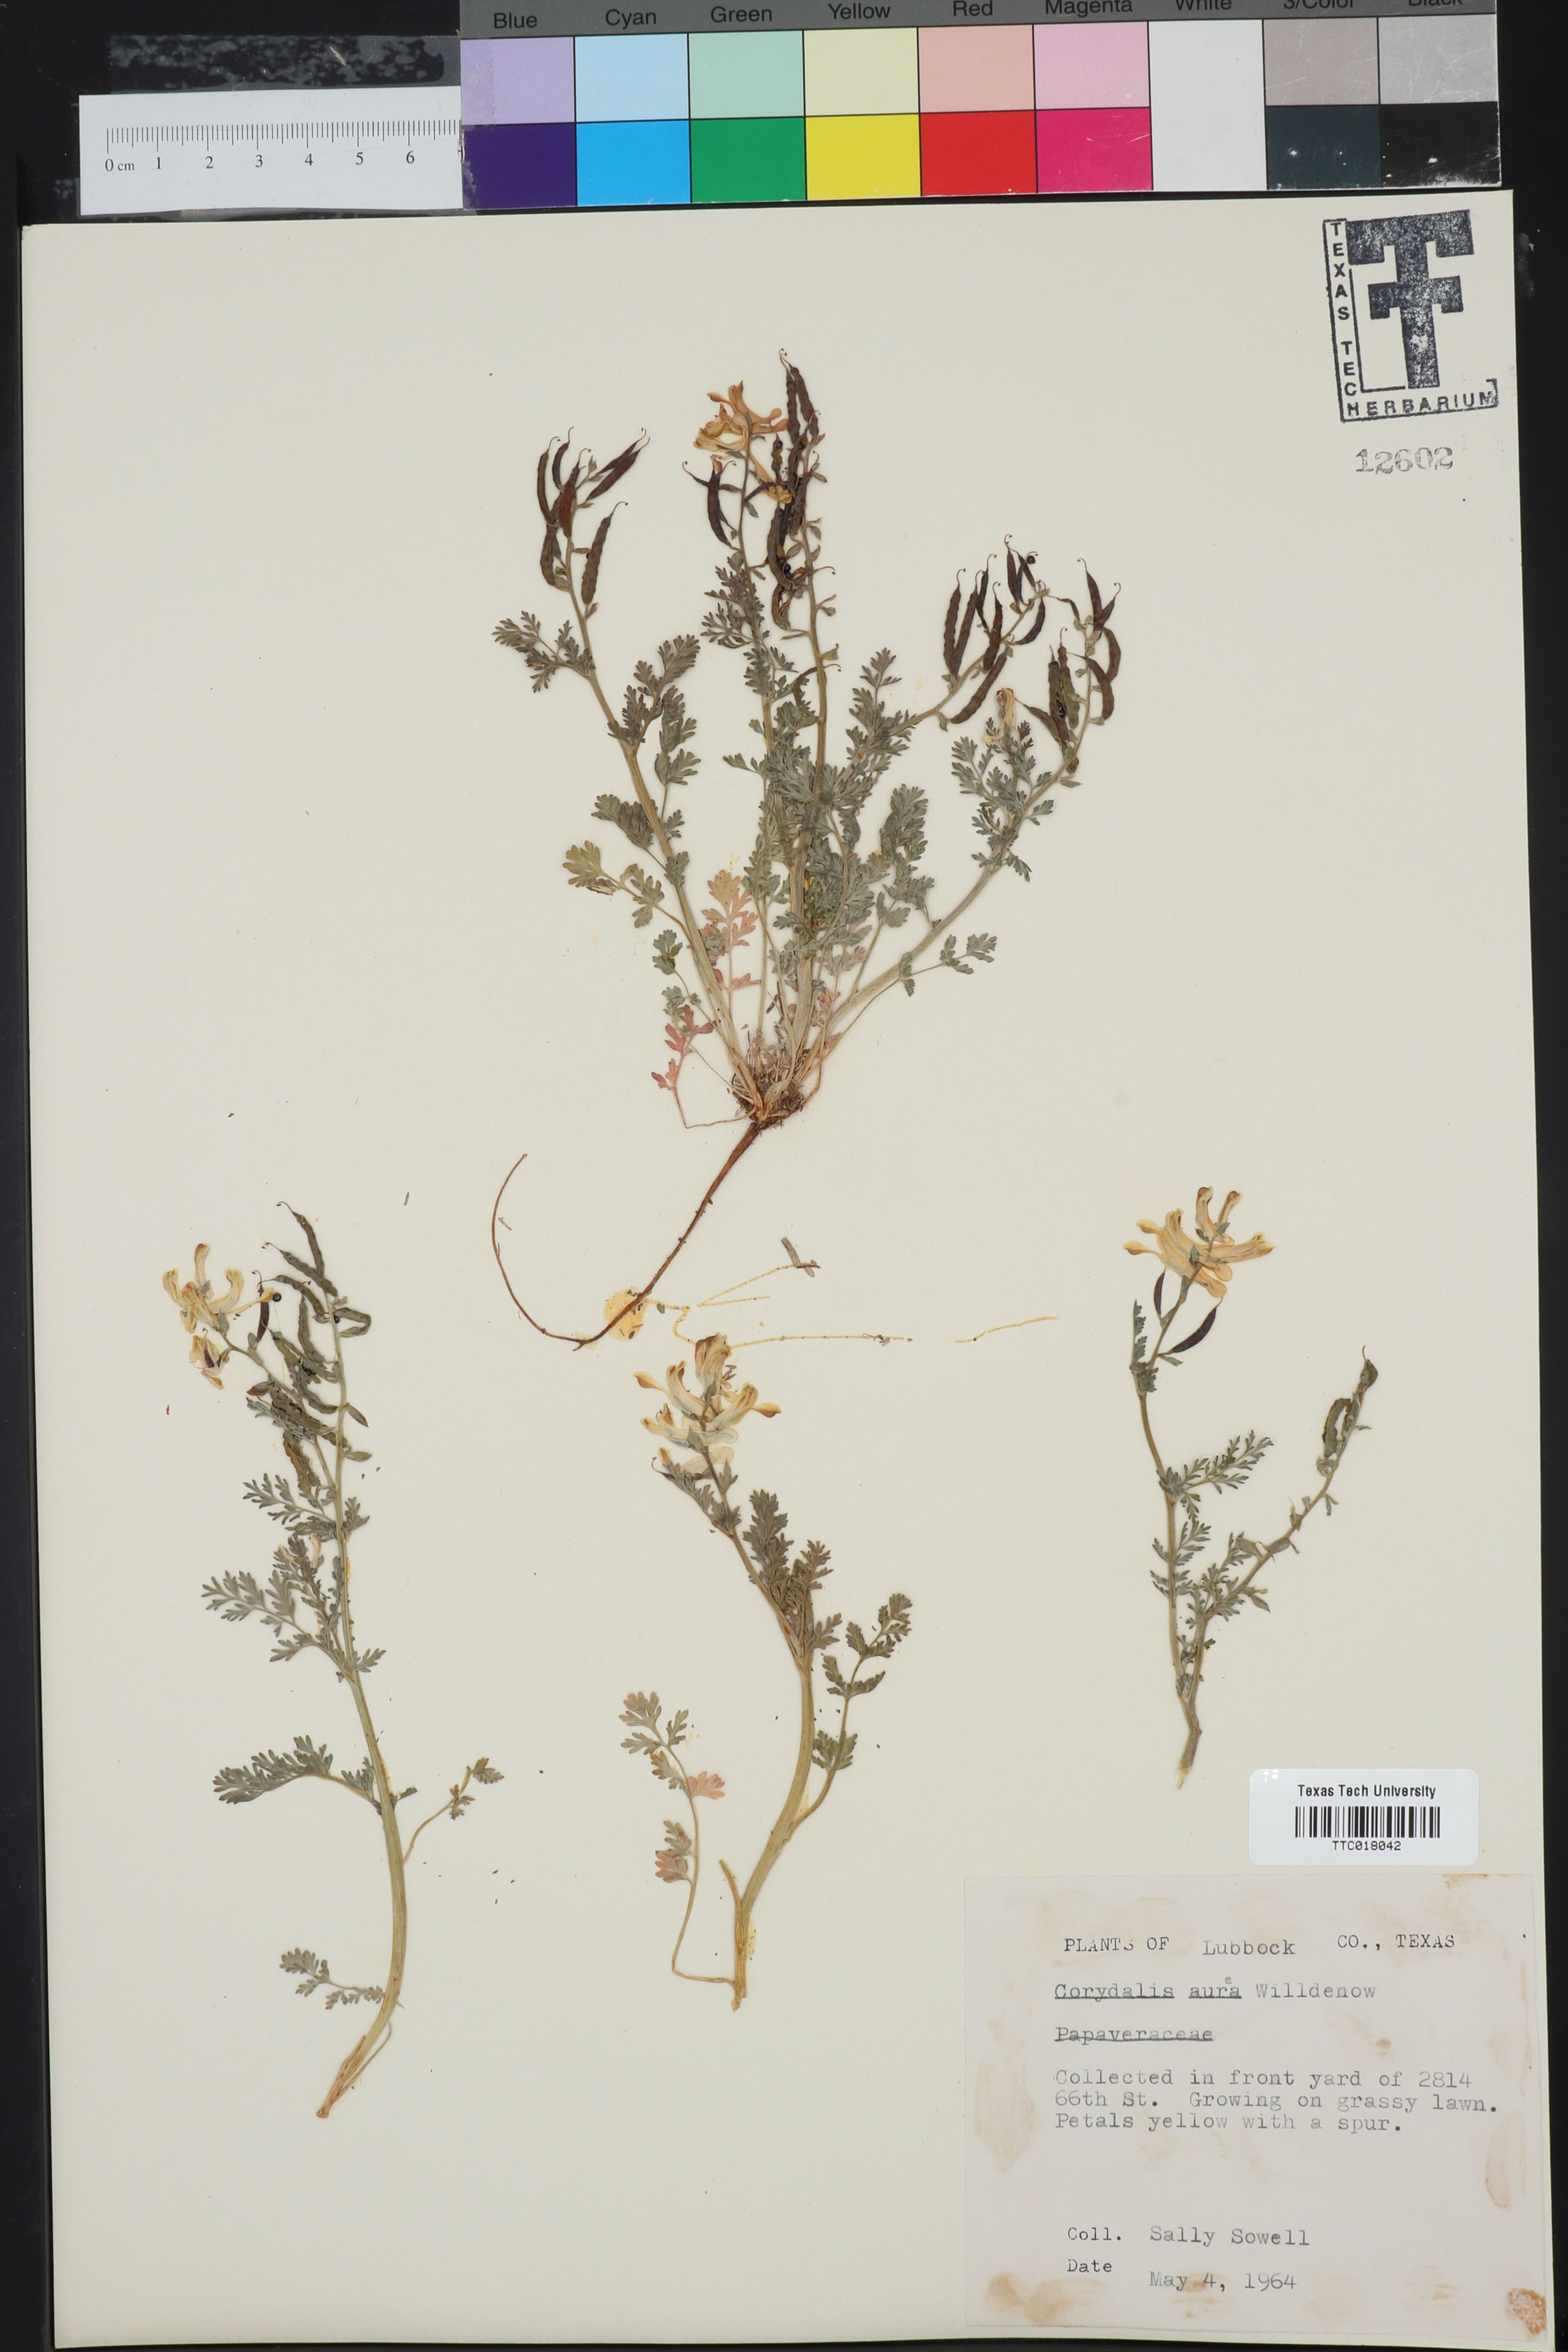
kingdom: Plantae
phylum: Tracheophyta
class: Magnoliopsida
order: Ranunculales
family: Papaveraceae
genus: Corydalis
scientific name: Corydalis aurea
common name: Golden corydalis
